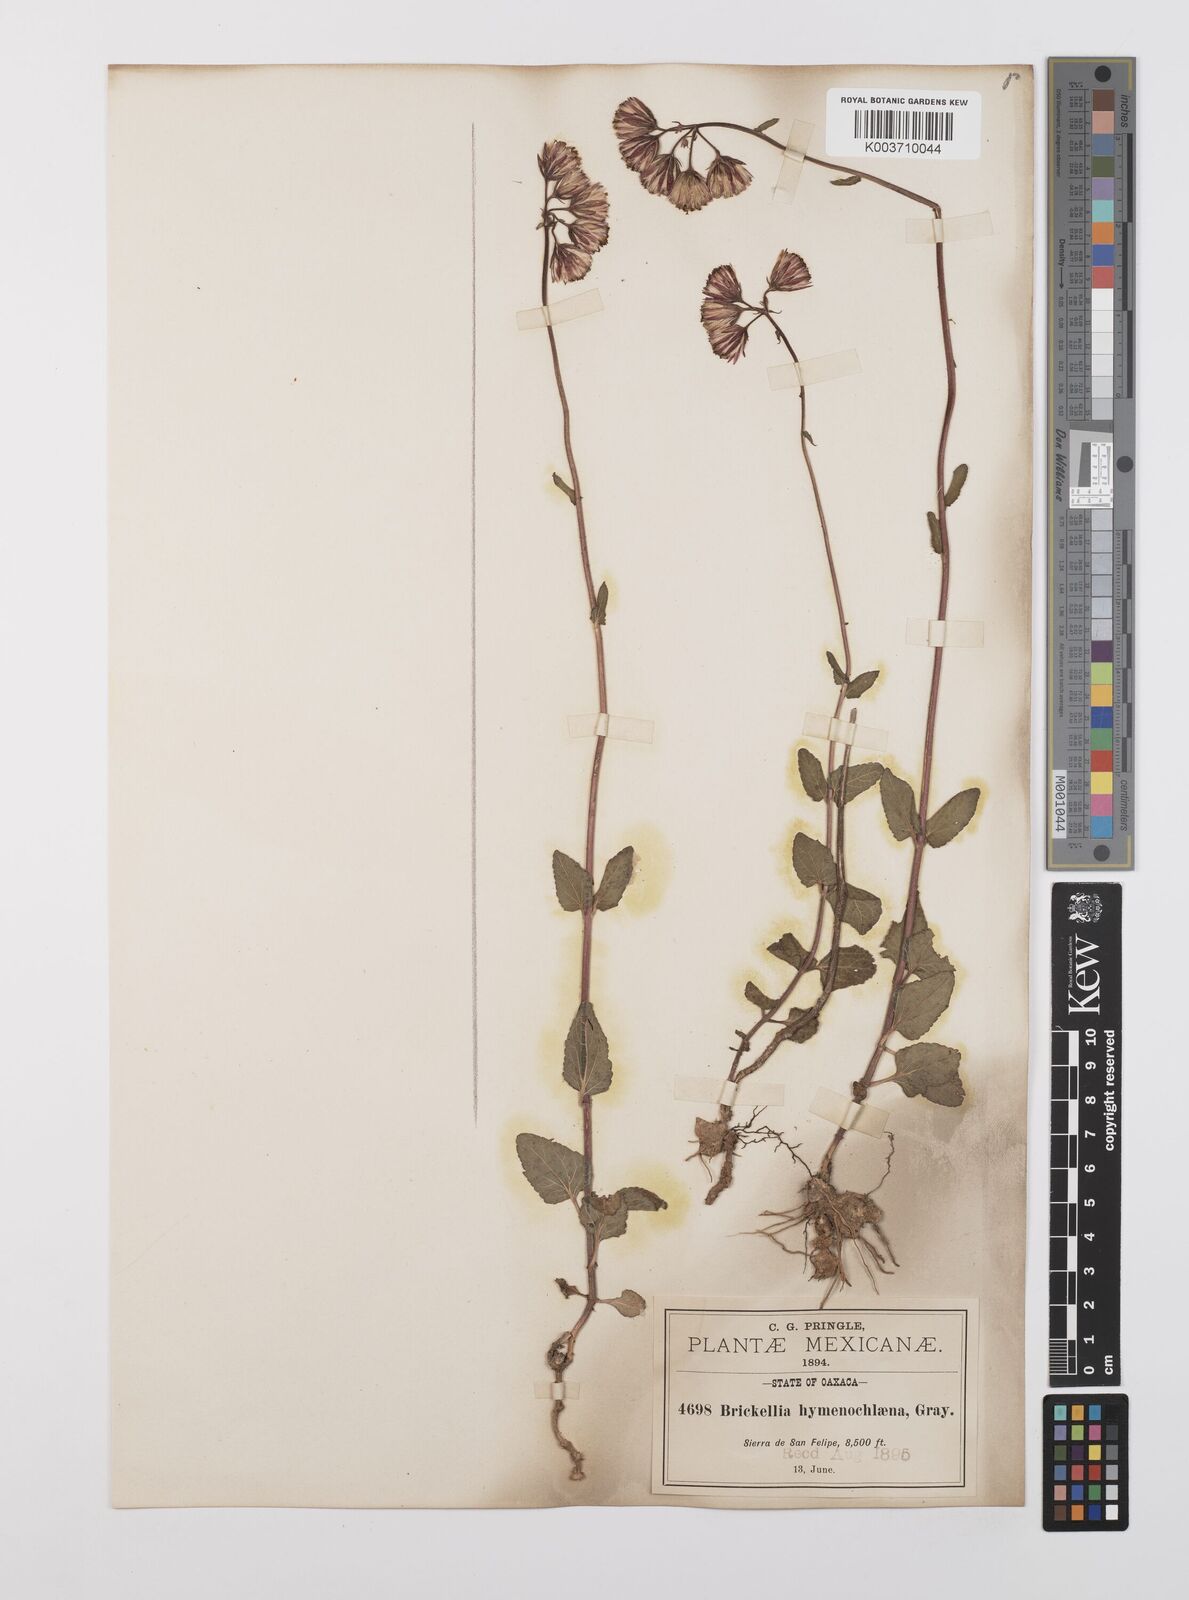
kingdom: Plantae
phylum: Tracheophyta
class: Magnoliopsida
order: Asterales
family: Asteraceae
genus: Brickellia
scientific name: Brickellia hymenochlaena
